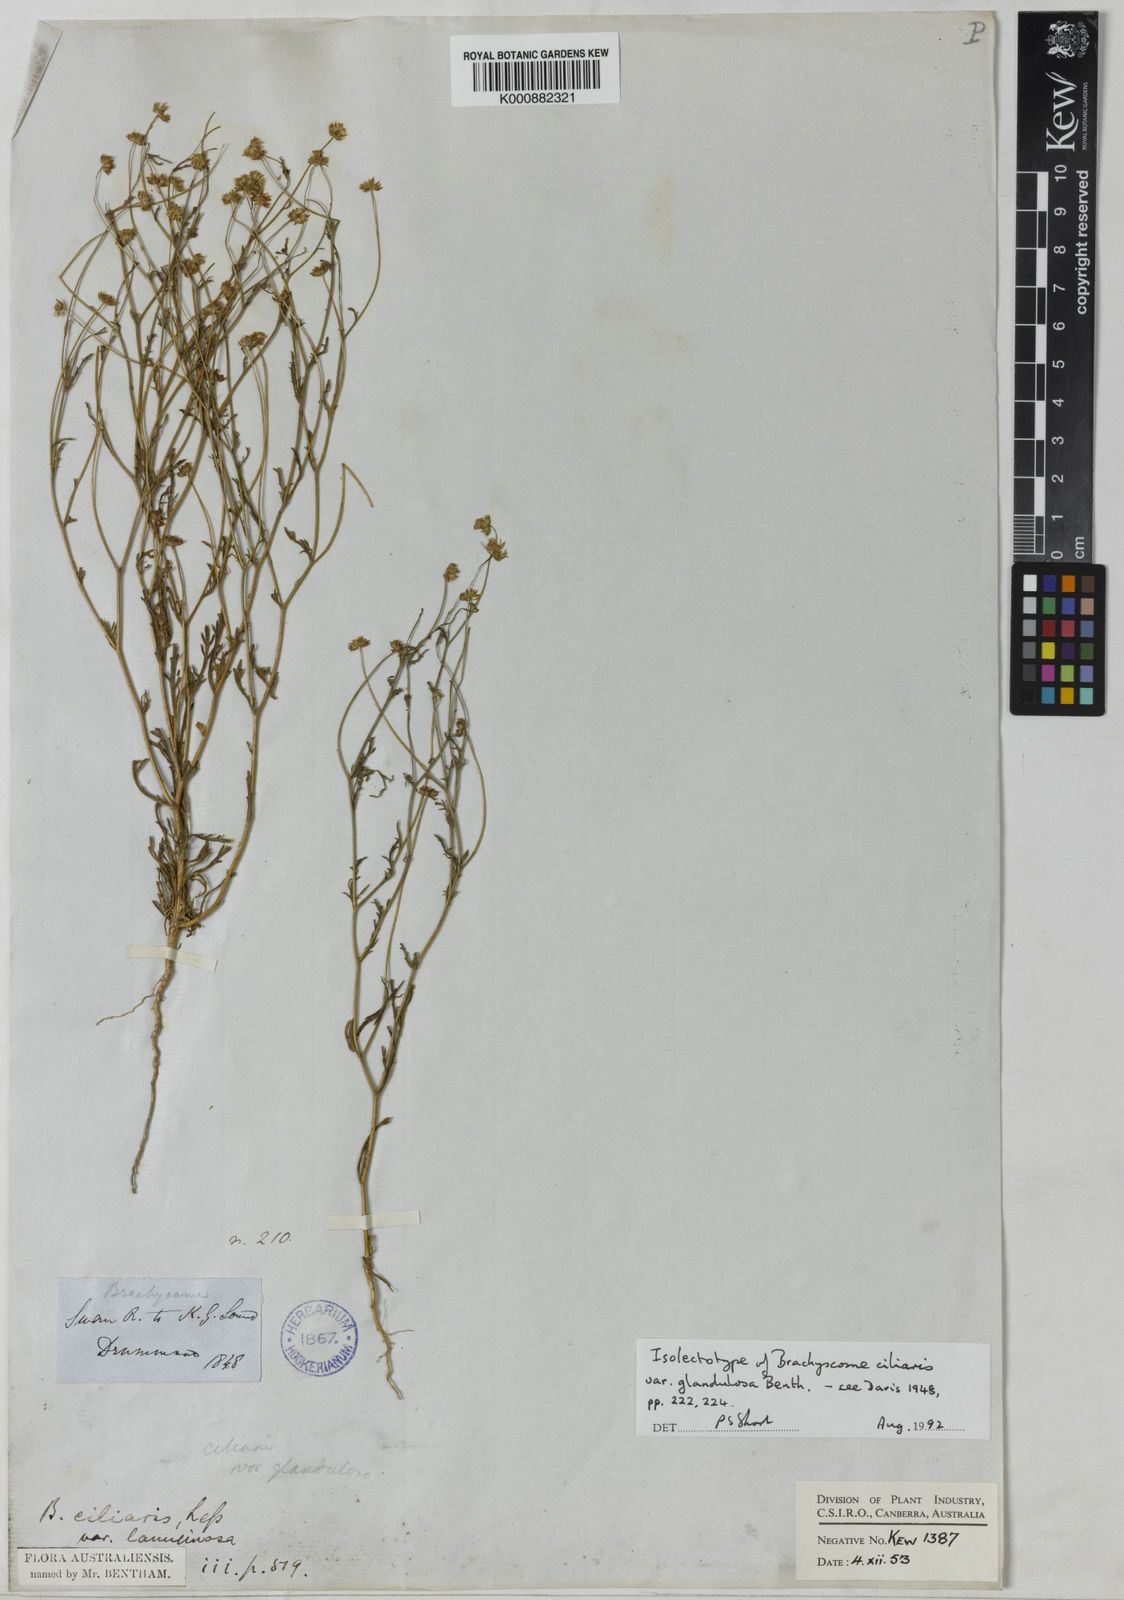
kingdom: Plantae
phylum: Tracheophyta
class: Magnoliopsida
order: Asterales
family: Asteraceae
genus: Brachyscome
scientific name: Brachyscome ciliaris
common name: Variable daisy
